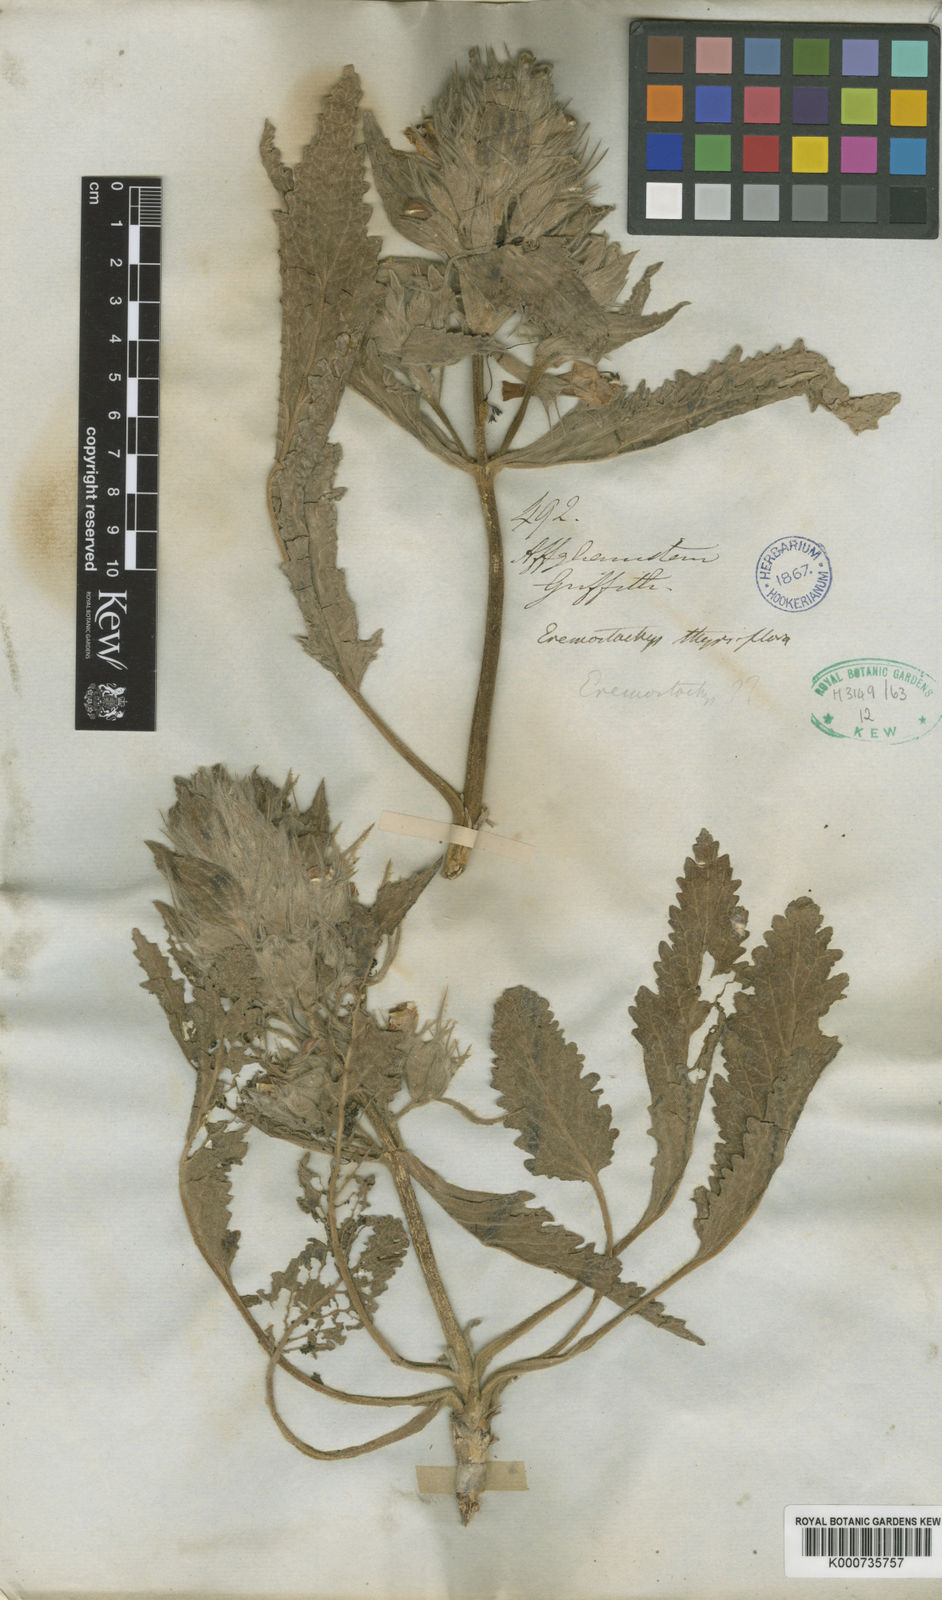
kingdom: Plantae
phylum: Tracheophyta
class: Magnoliopsida
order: Lamiales
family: Lamiaceae
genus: Phlomoides
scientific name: Phlomoides thyrsiflora
